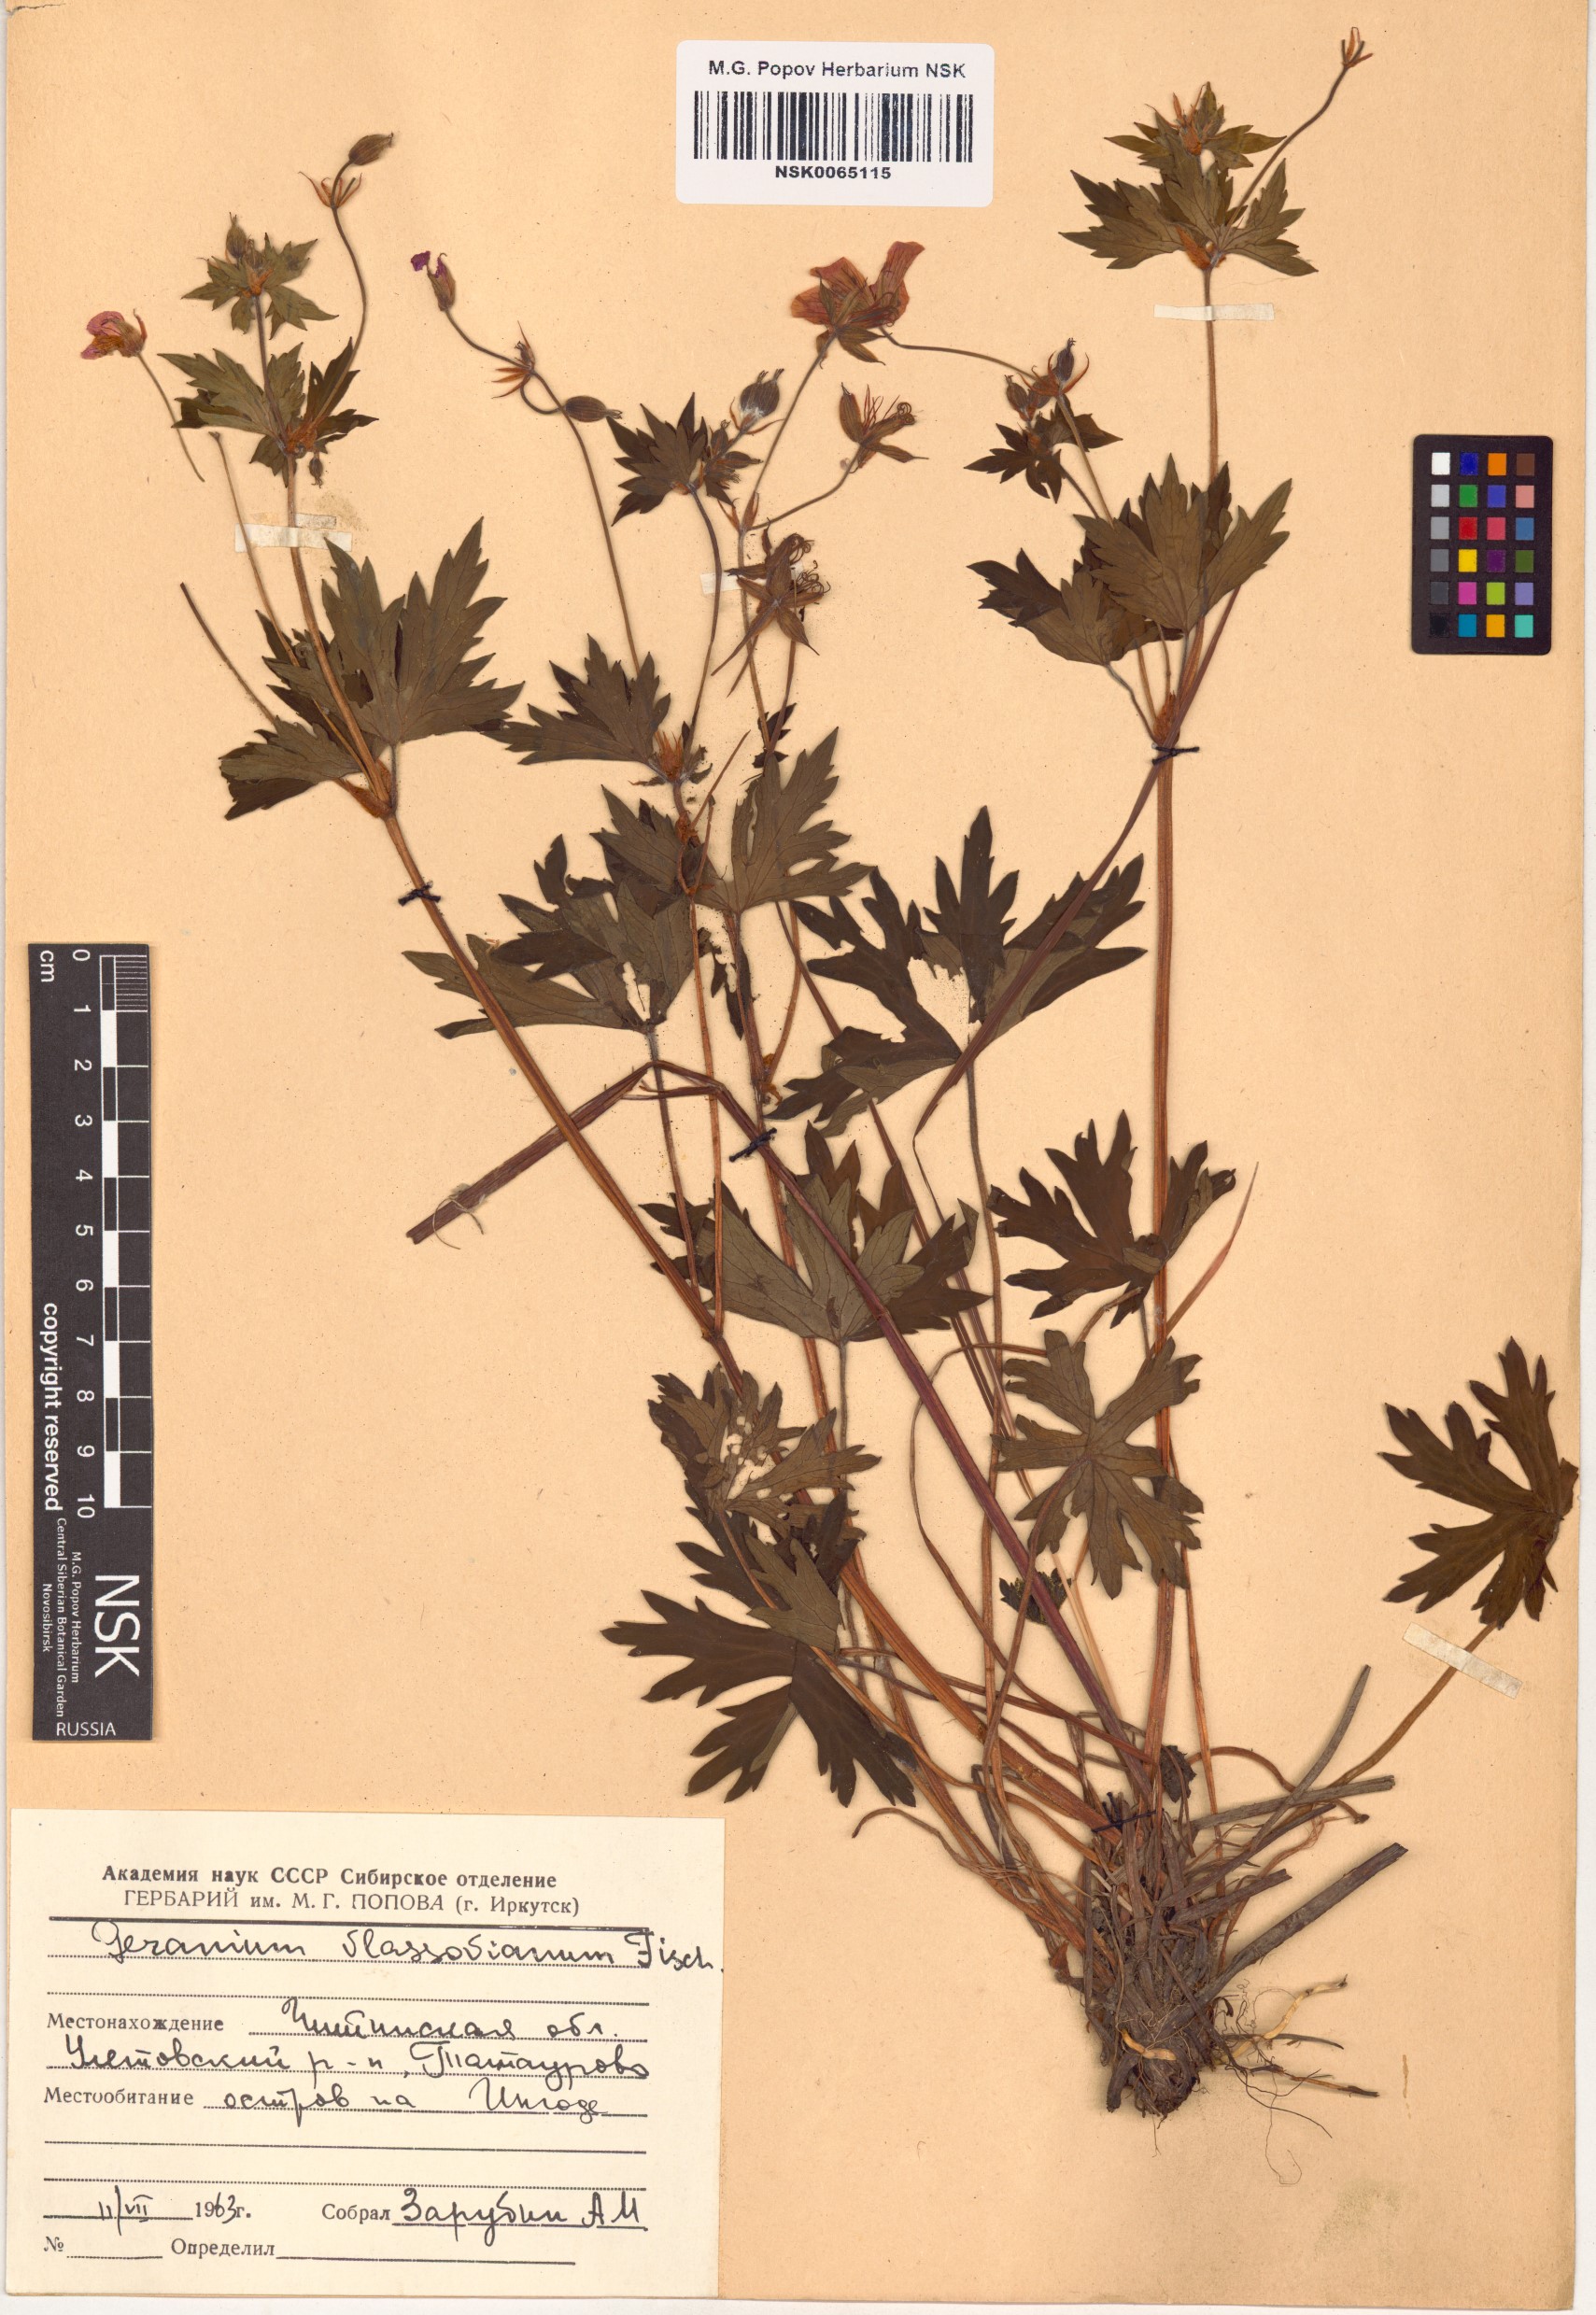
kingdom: Plantae
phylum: Tracheophyta
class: Magnoliopsida
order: Geraniales
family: Geraniaceae
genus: Geranium
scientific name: Geranium wlassovianum
